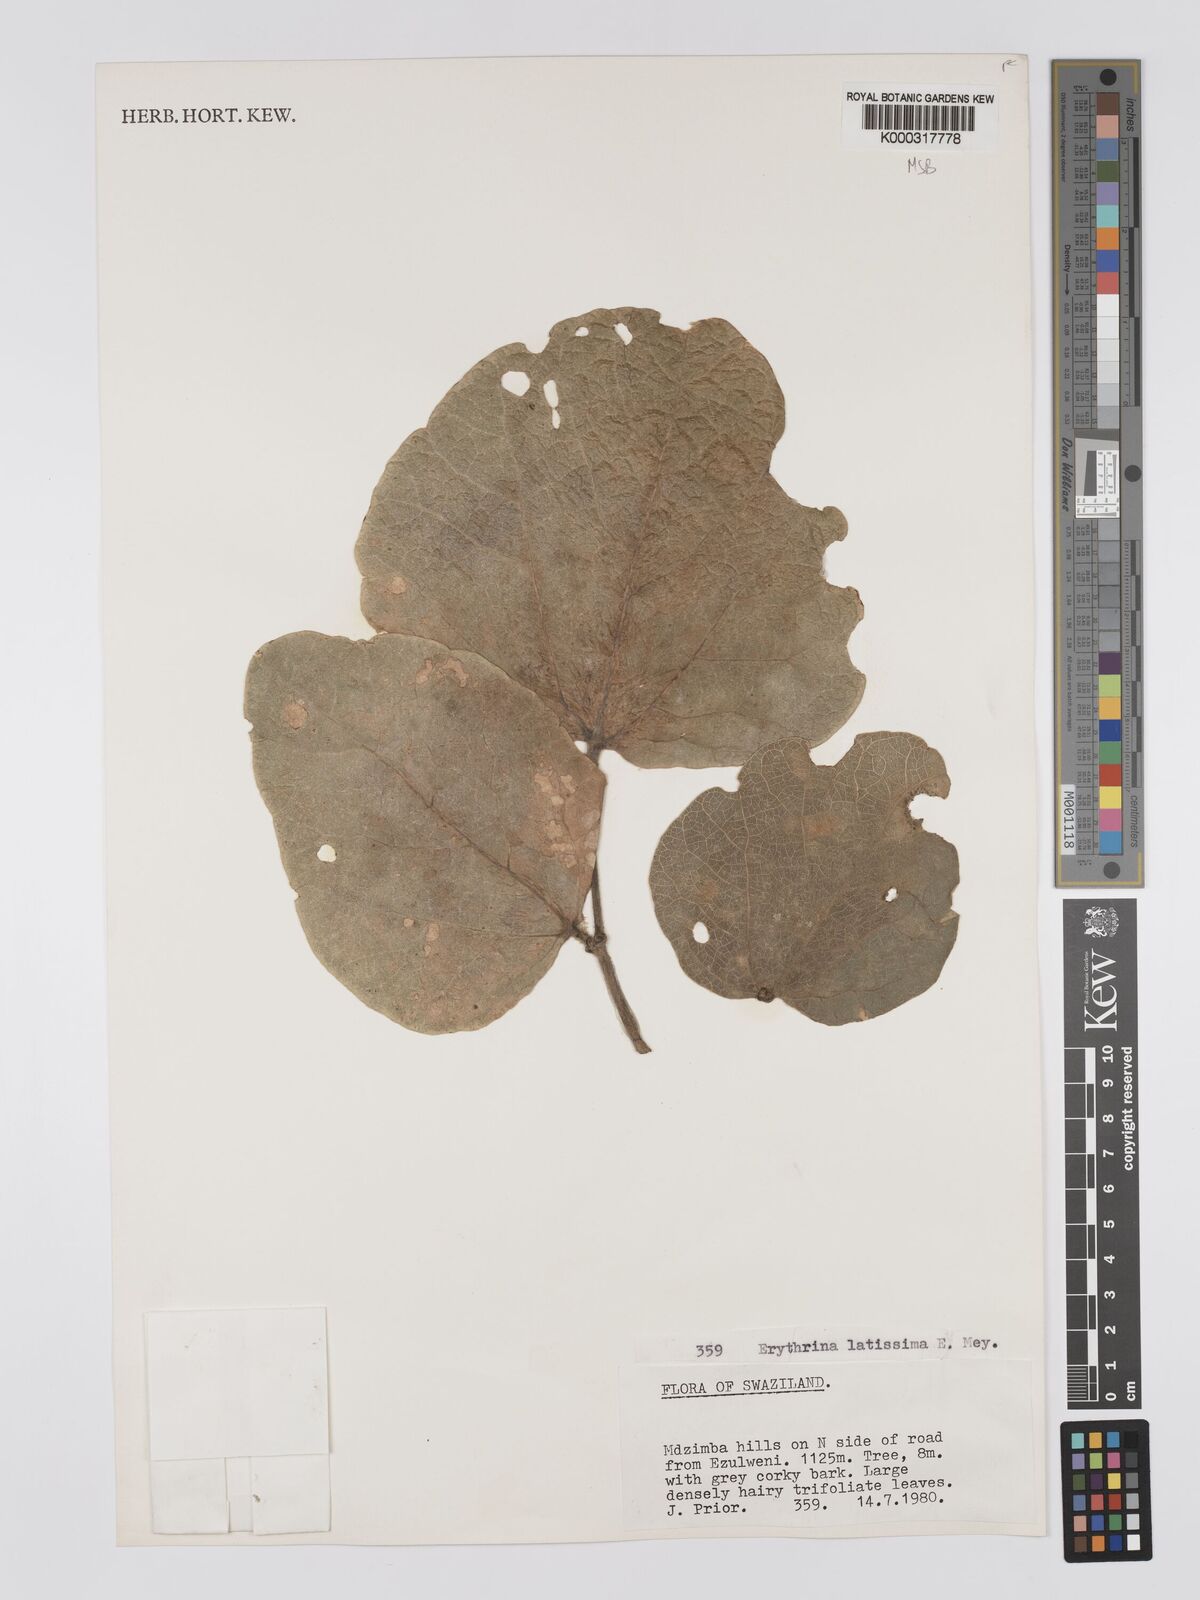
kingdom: Plantae
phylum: Tracheophyta
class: Magnoliopsida
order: Fabales
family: Fabaceae
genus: Erythrina
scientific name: Erythrina latissima
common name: Broad-leaved coral tree
